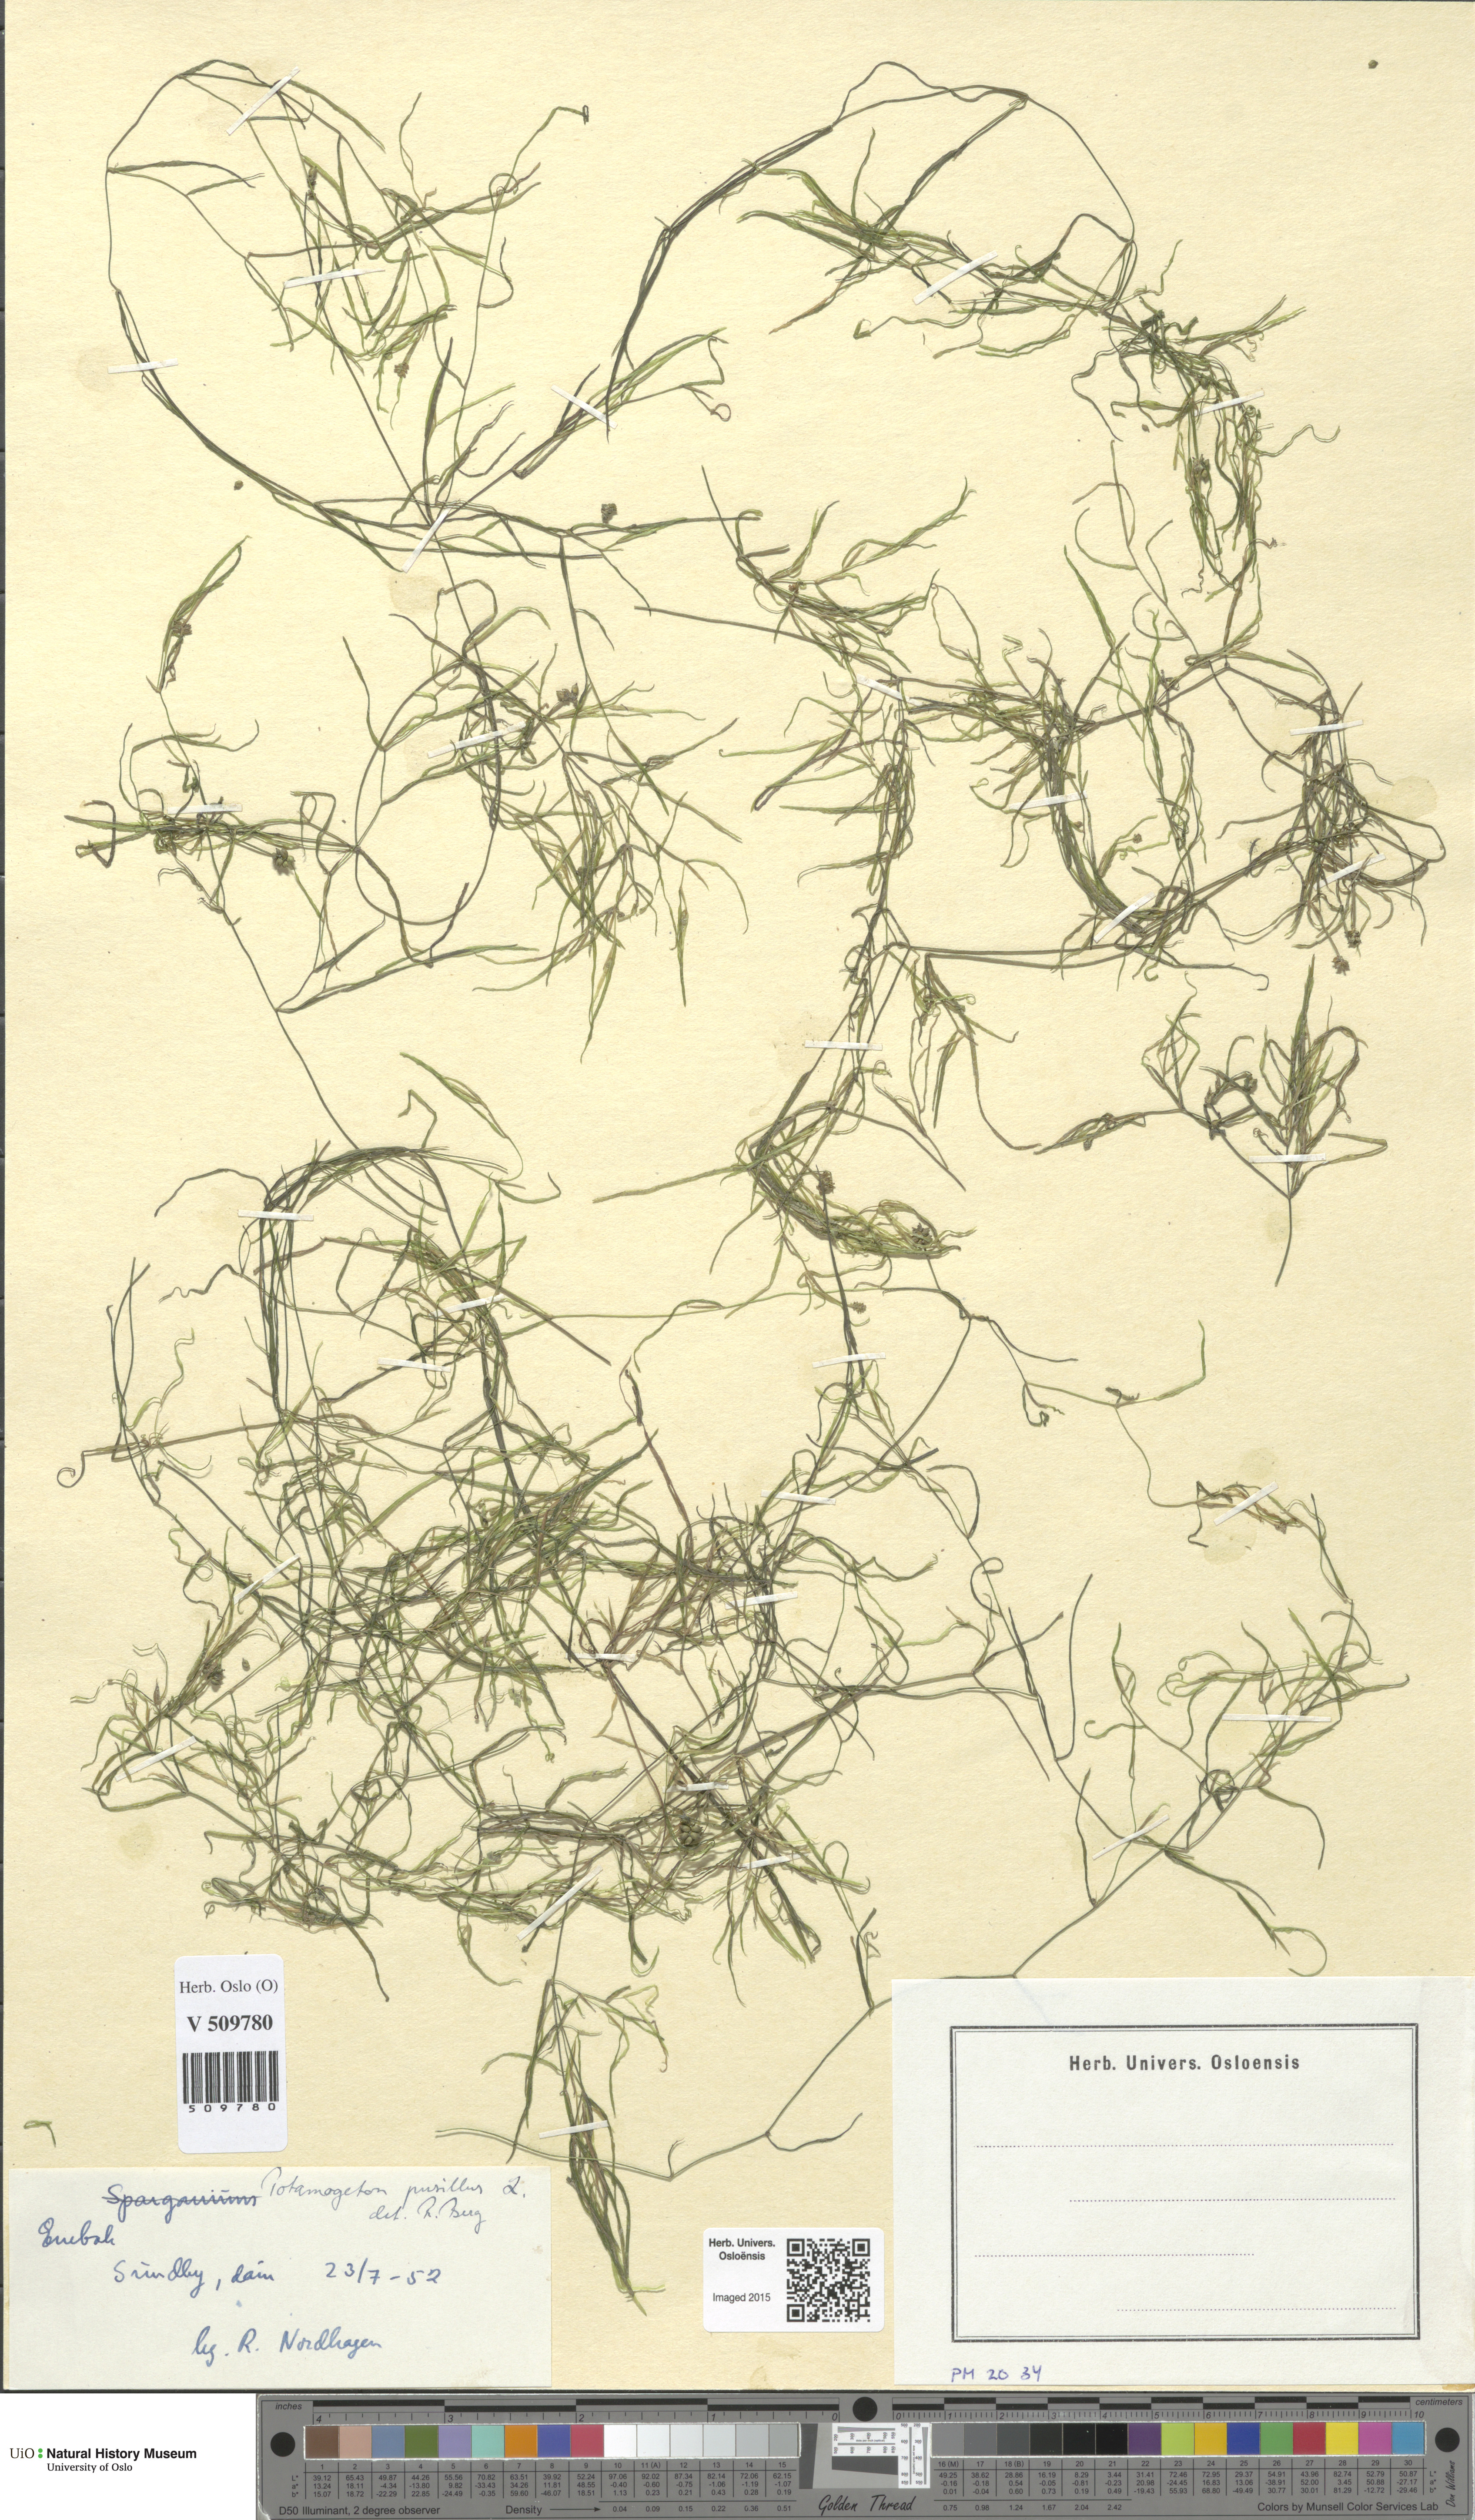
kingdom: Plantae
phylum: Tracheophyta
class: Liliopsida
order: Alismatales
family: Potamogetonaceae
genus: Potamogeton
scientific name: Potamogeton berchtoldii
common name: Small pondweed
